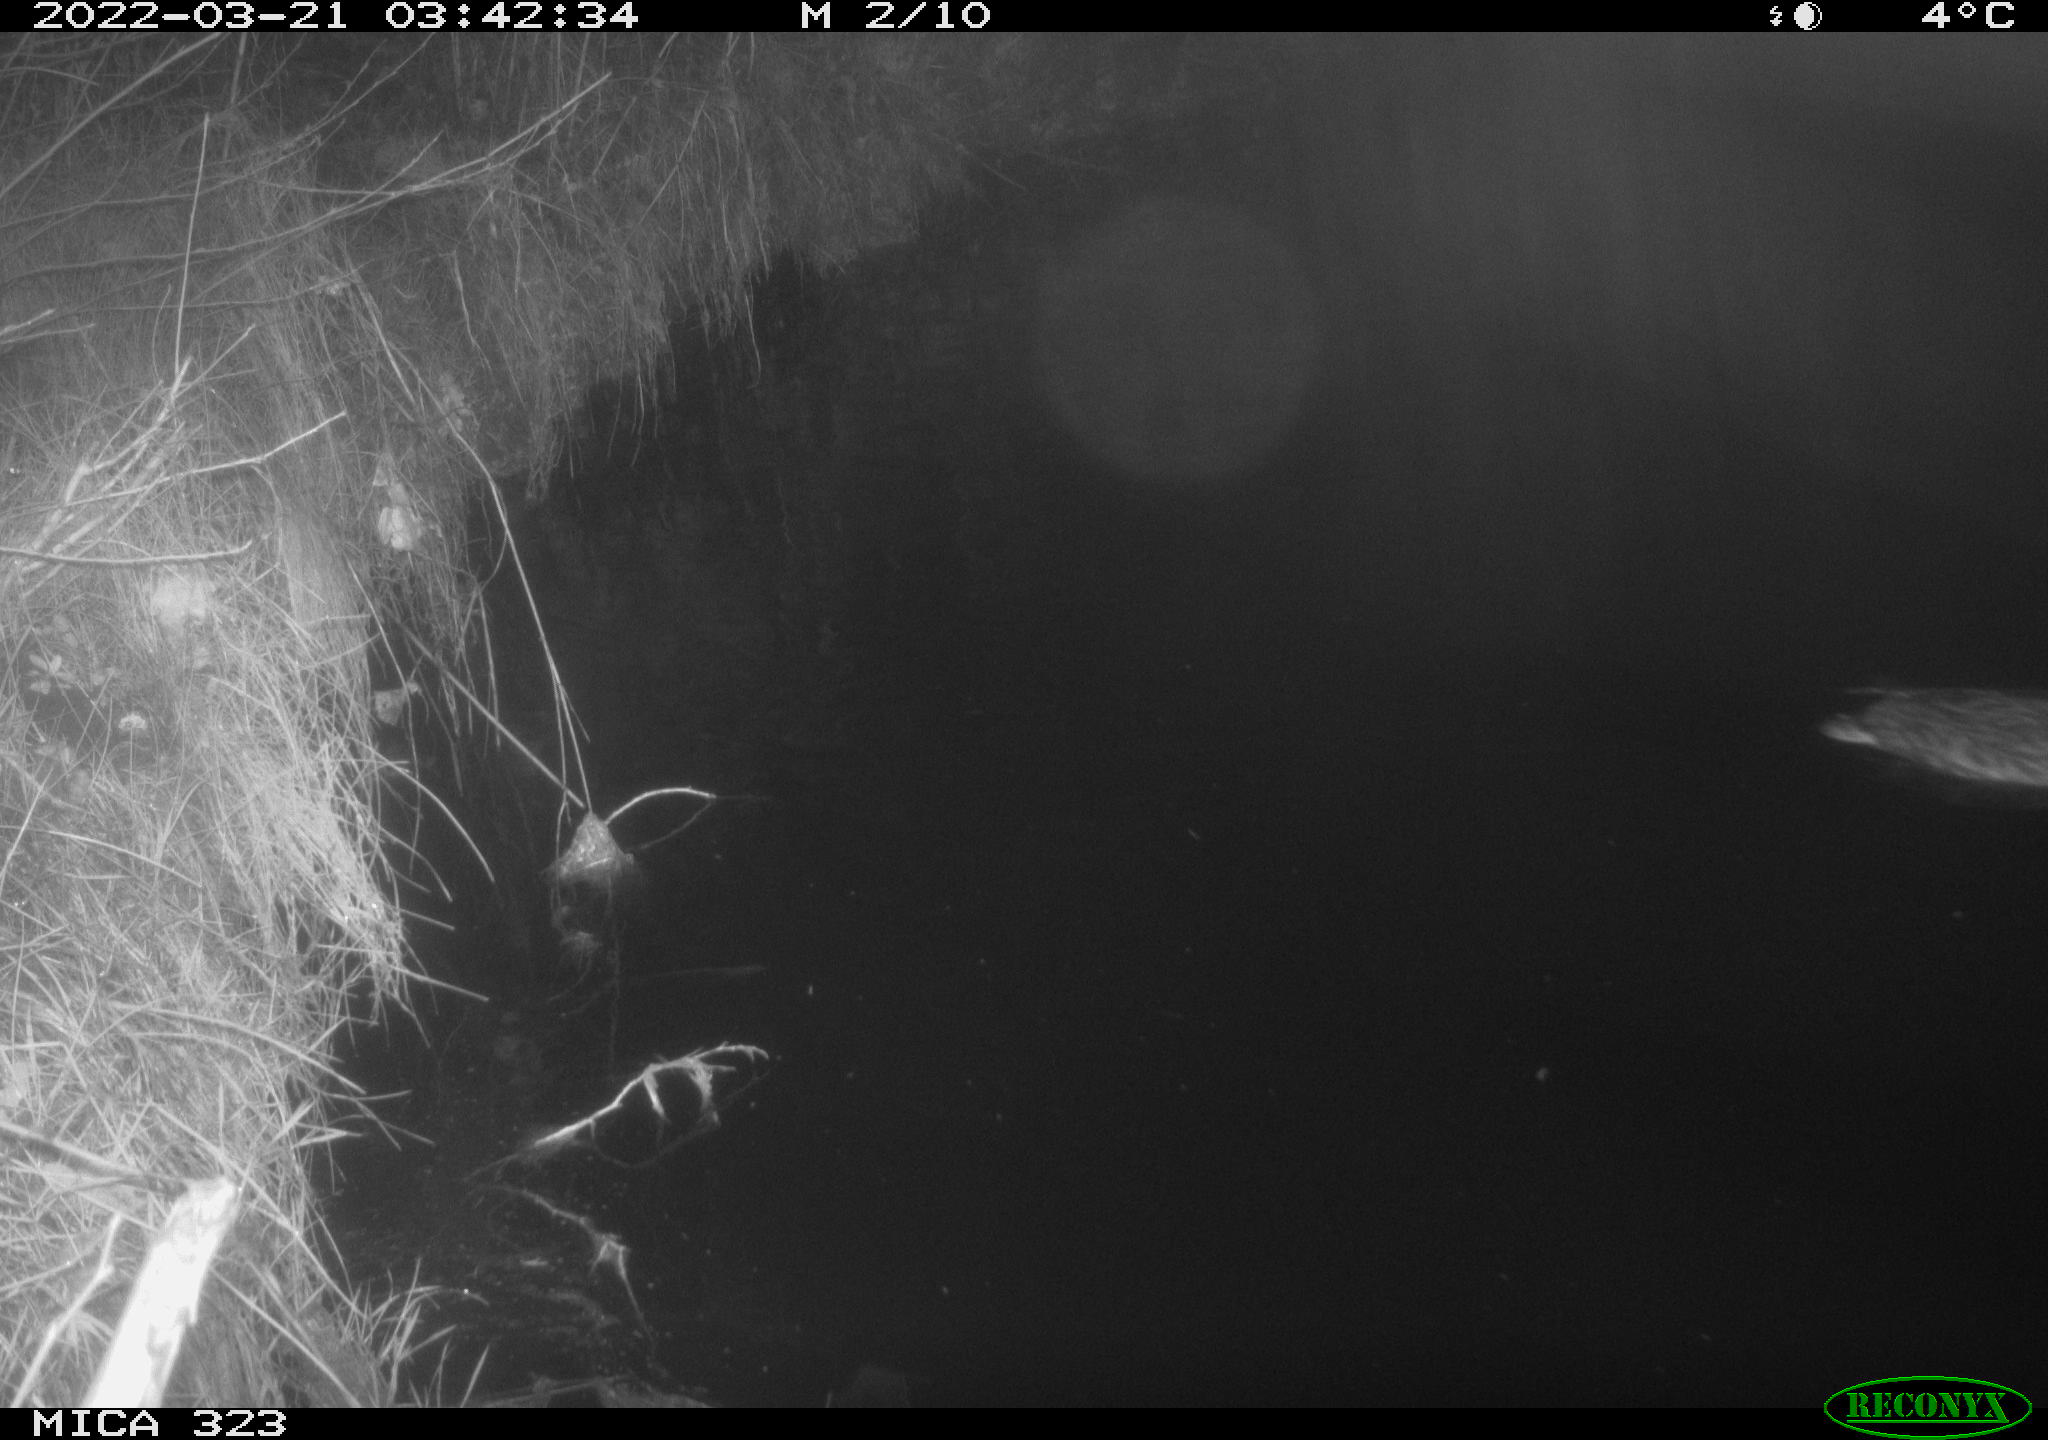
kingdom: Animalia
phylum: Chordata
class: Aves
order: Anseriformes
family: Anatidae
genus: Anas
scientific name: Anas
